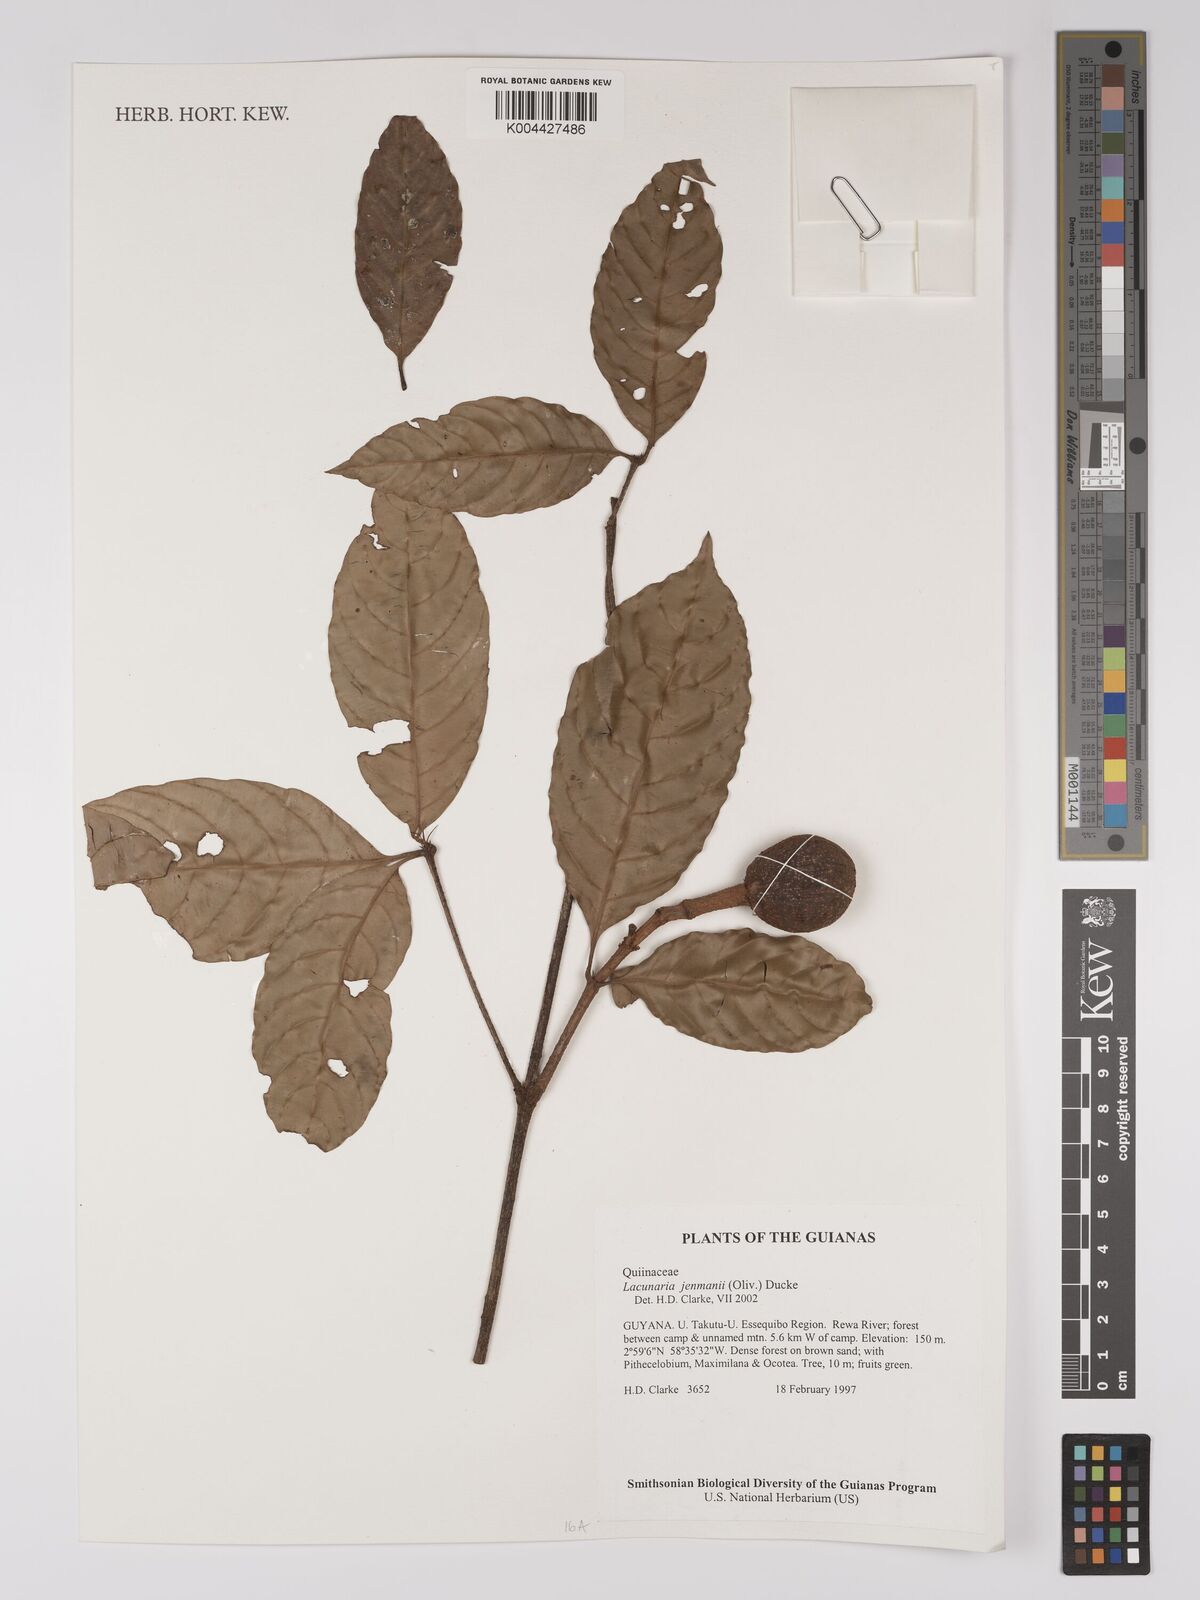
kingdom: Plantae
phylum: Tracheophyta
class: Magnoliopsida
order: Malpighiales
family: Quiinaceae
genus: Lacunaria
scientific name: Lacunaria jenmanii
